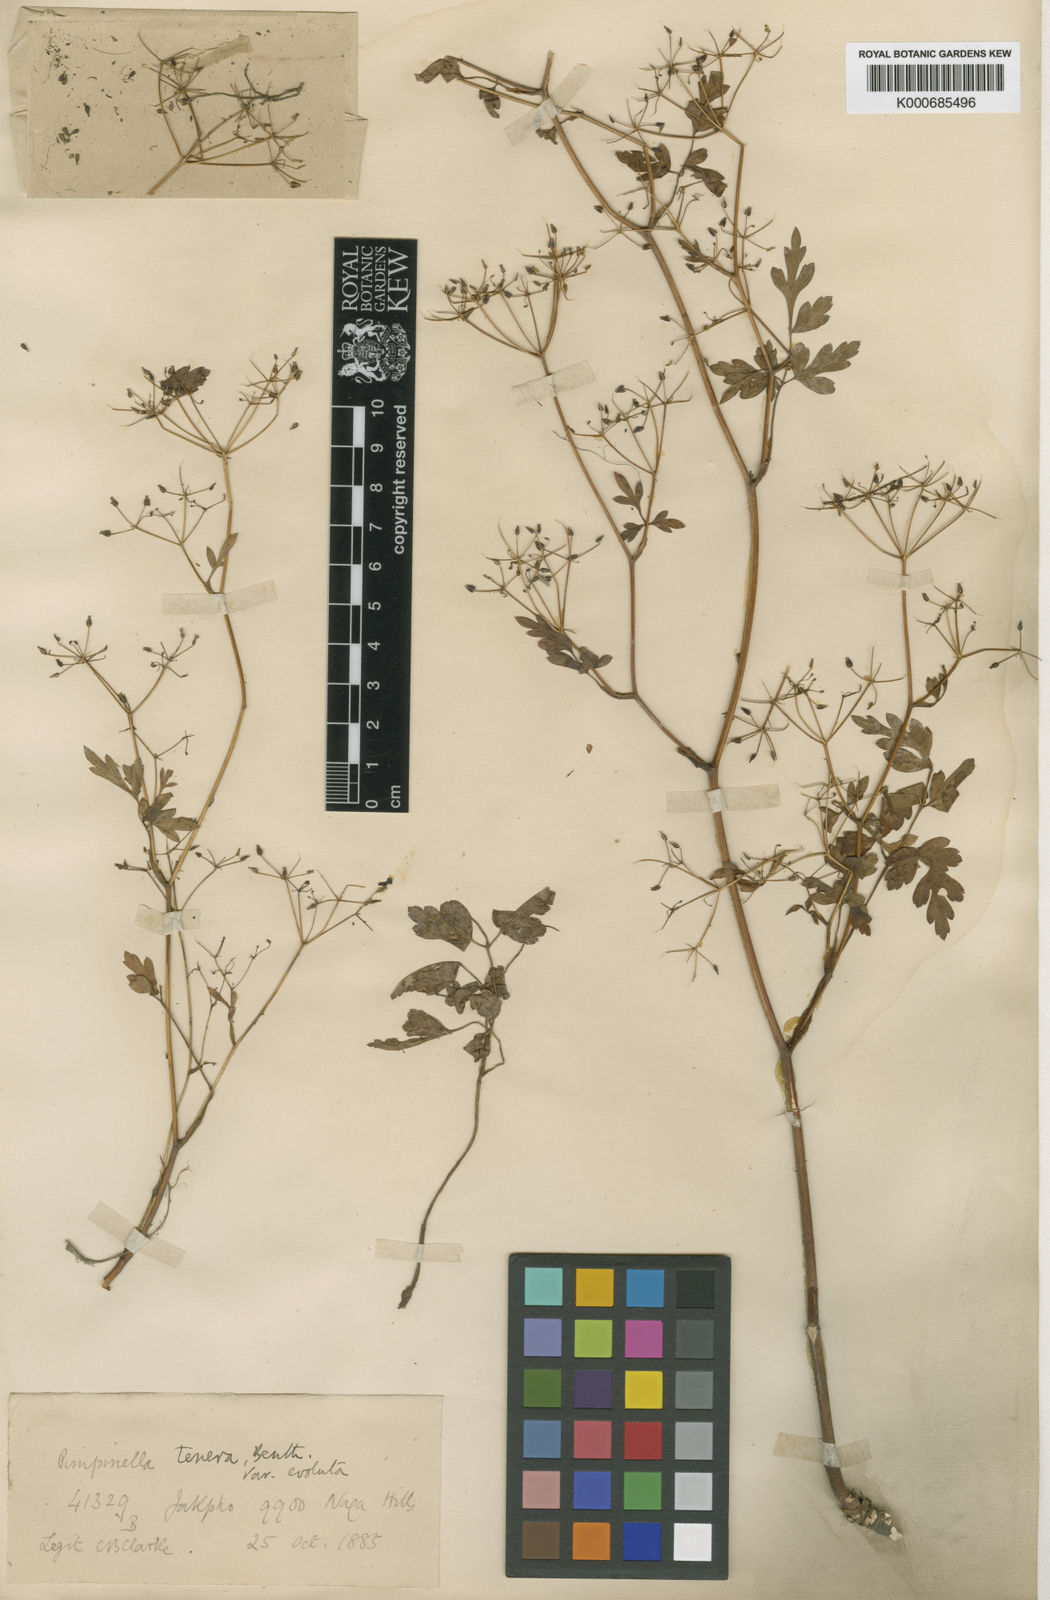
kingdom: Plantae
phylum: Tracheophyta
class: Magnoliopsida
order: Apiales
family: Apiaceae
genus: Pimpinella
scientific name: Pimpinella
